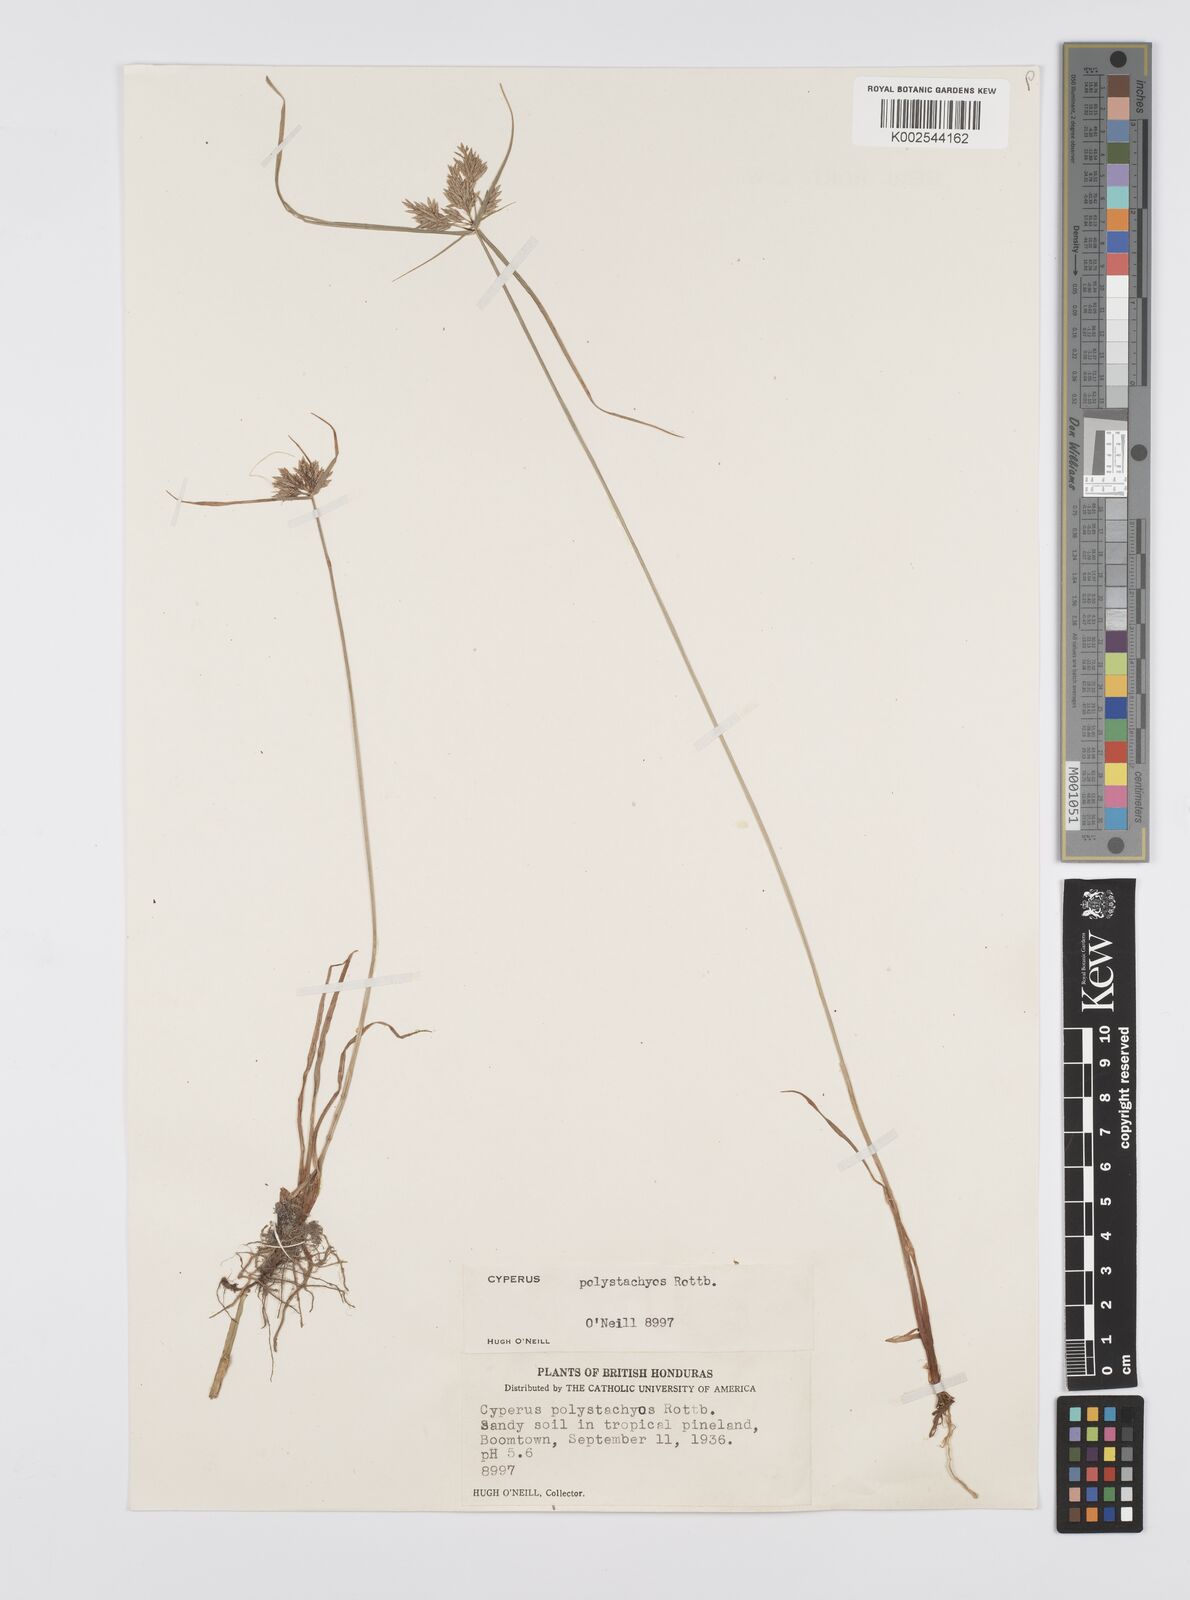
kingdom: Plantae
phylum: Tracheophyta
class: Liliopsida
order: Poales
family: Cyperaceae
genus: Cyperus
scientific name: Cyperus polystachyos
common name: Bunchy flat sedge
